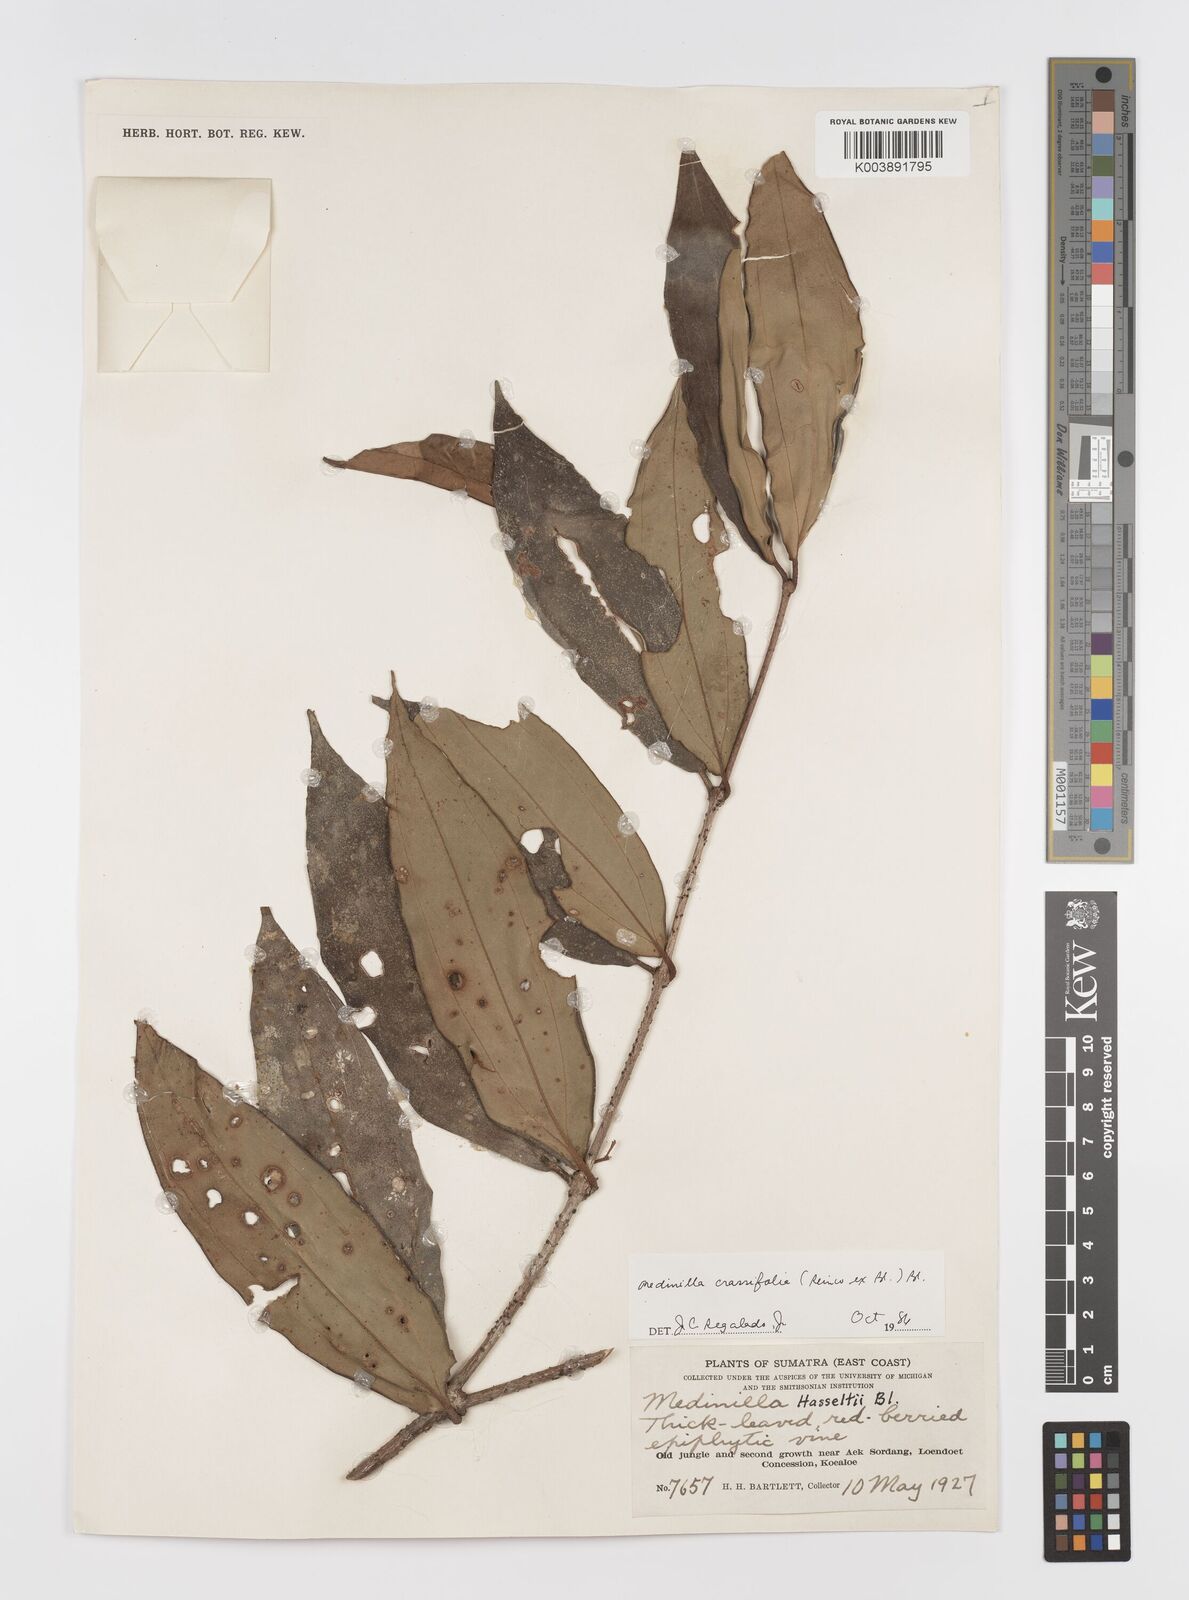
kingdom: Plantae
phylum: Tracheophyta
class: Magnoliopsida
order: Myrtales
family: Melastomataceae
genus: Medinilla
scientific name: Medinilla crassifolia
